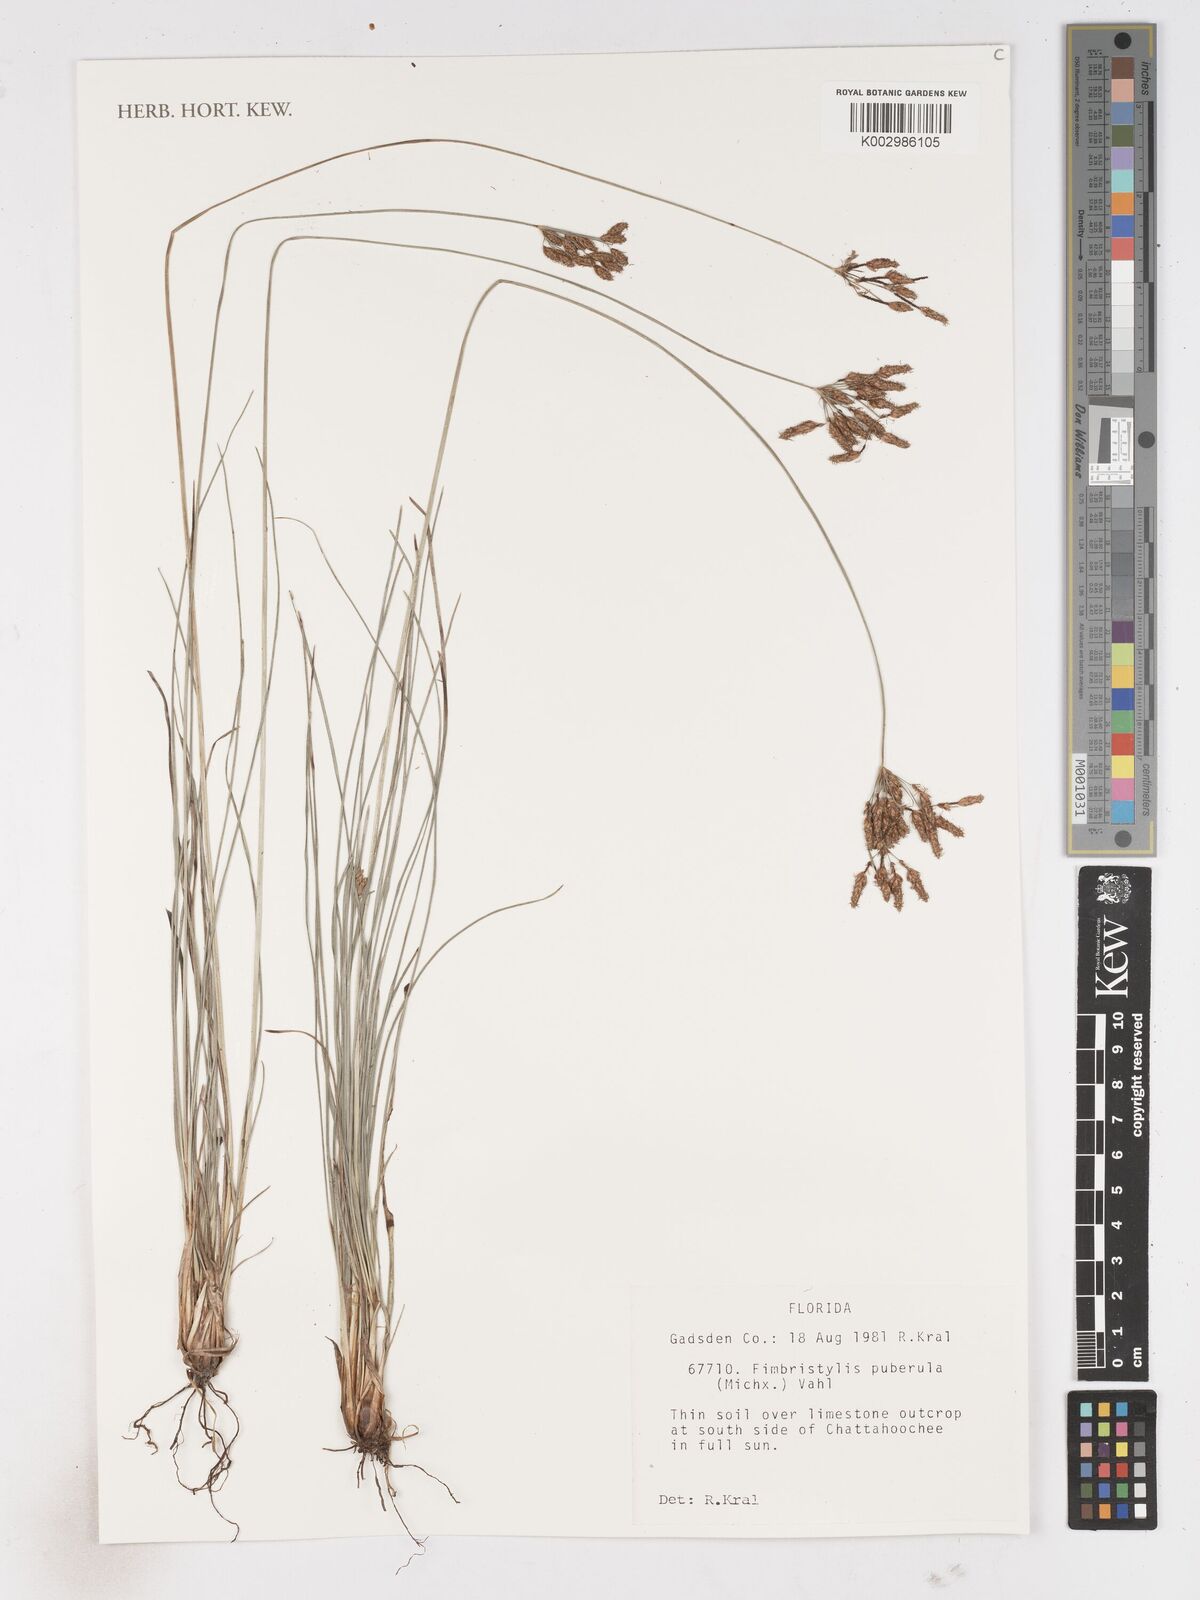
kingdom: Plantae
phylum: Tracheophyta
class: Liliopsida
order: Poales
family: Cyperaceae
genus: Fimbristylis
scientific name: Fimbristylis puberula
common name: Hairy fimbristylis
